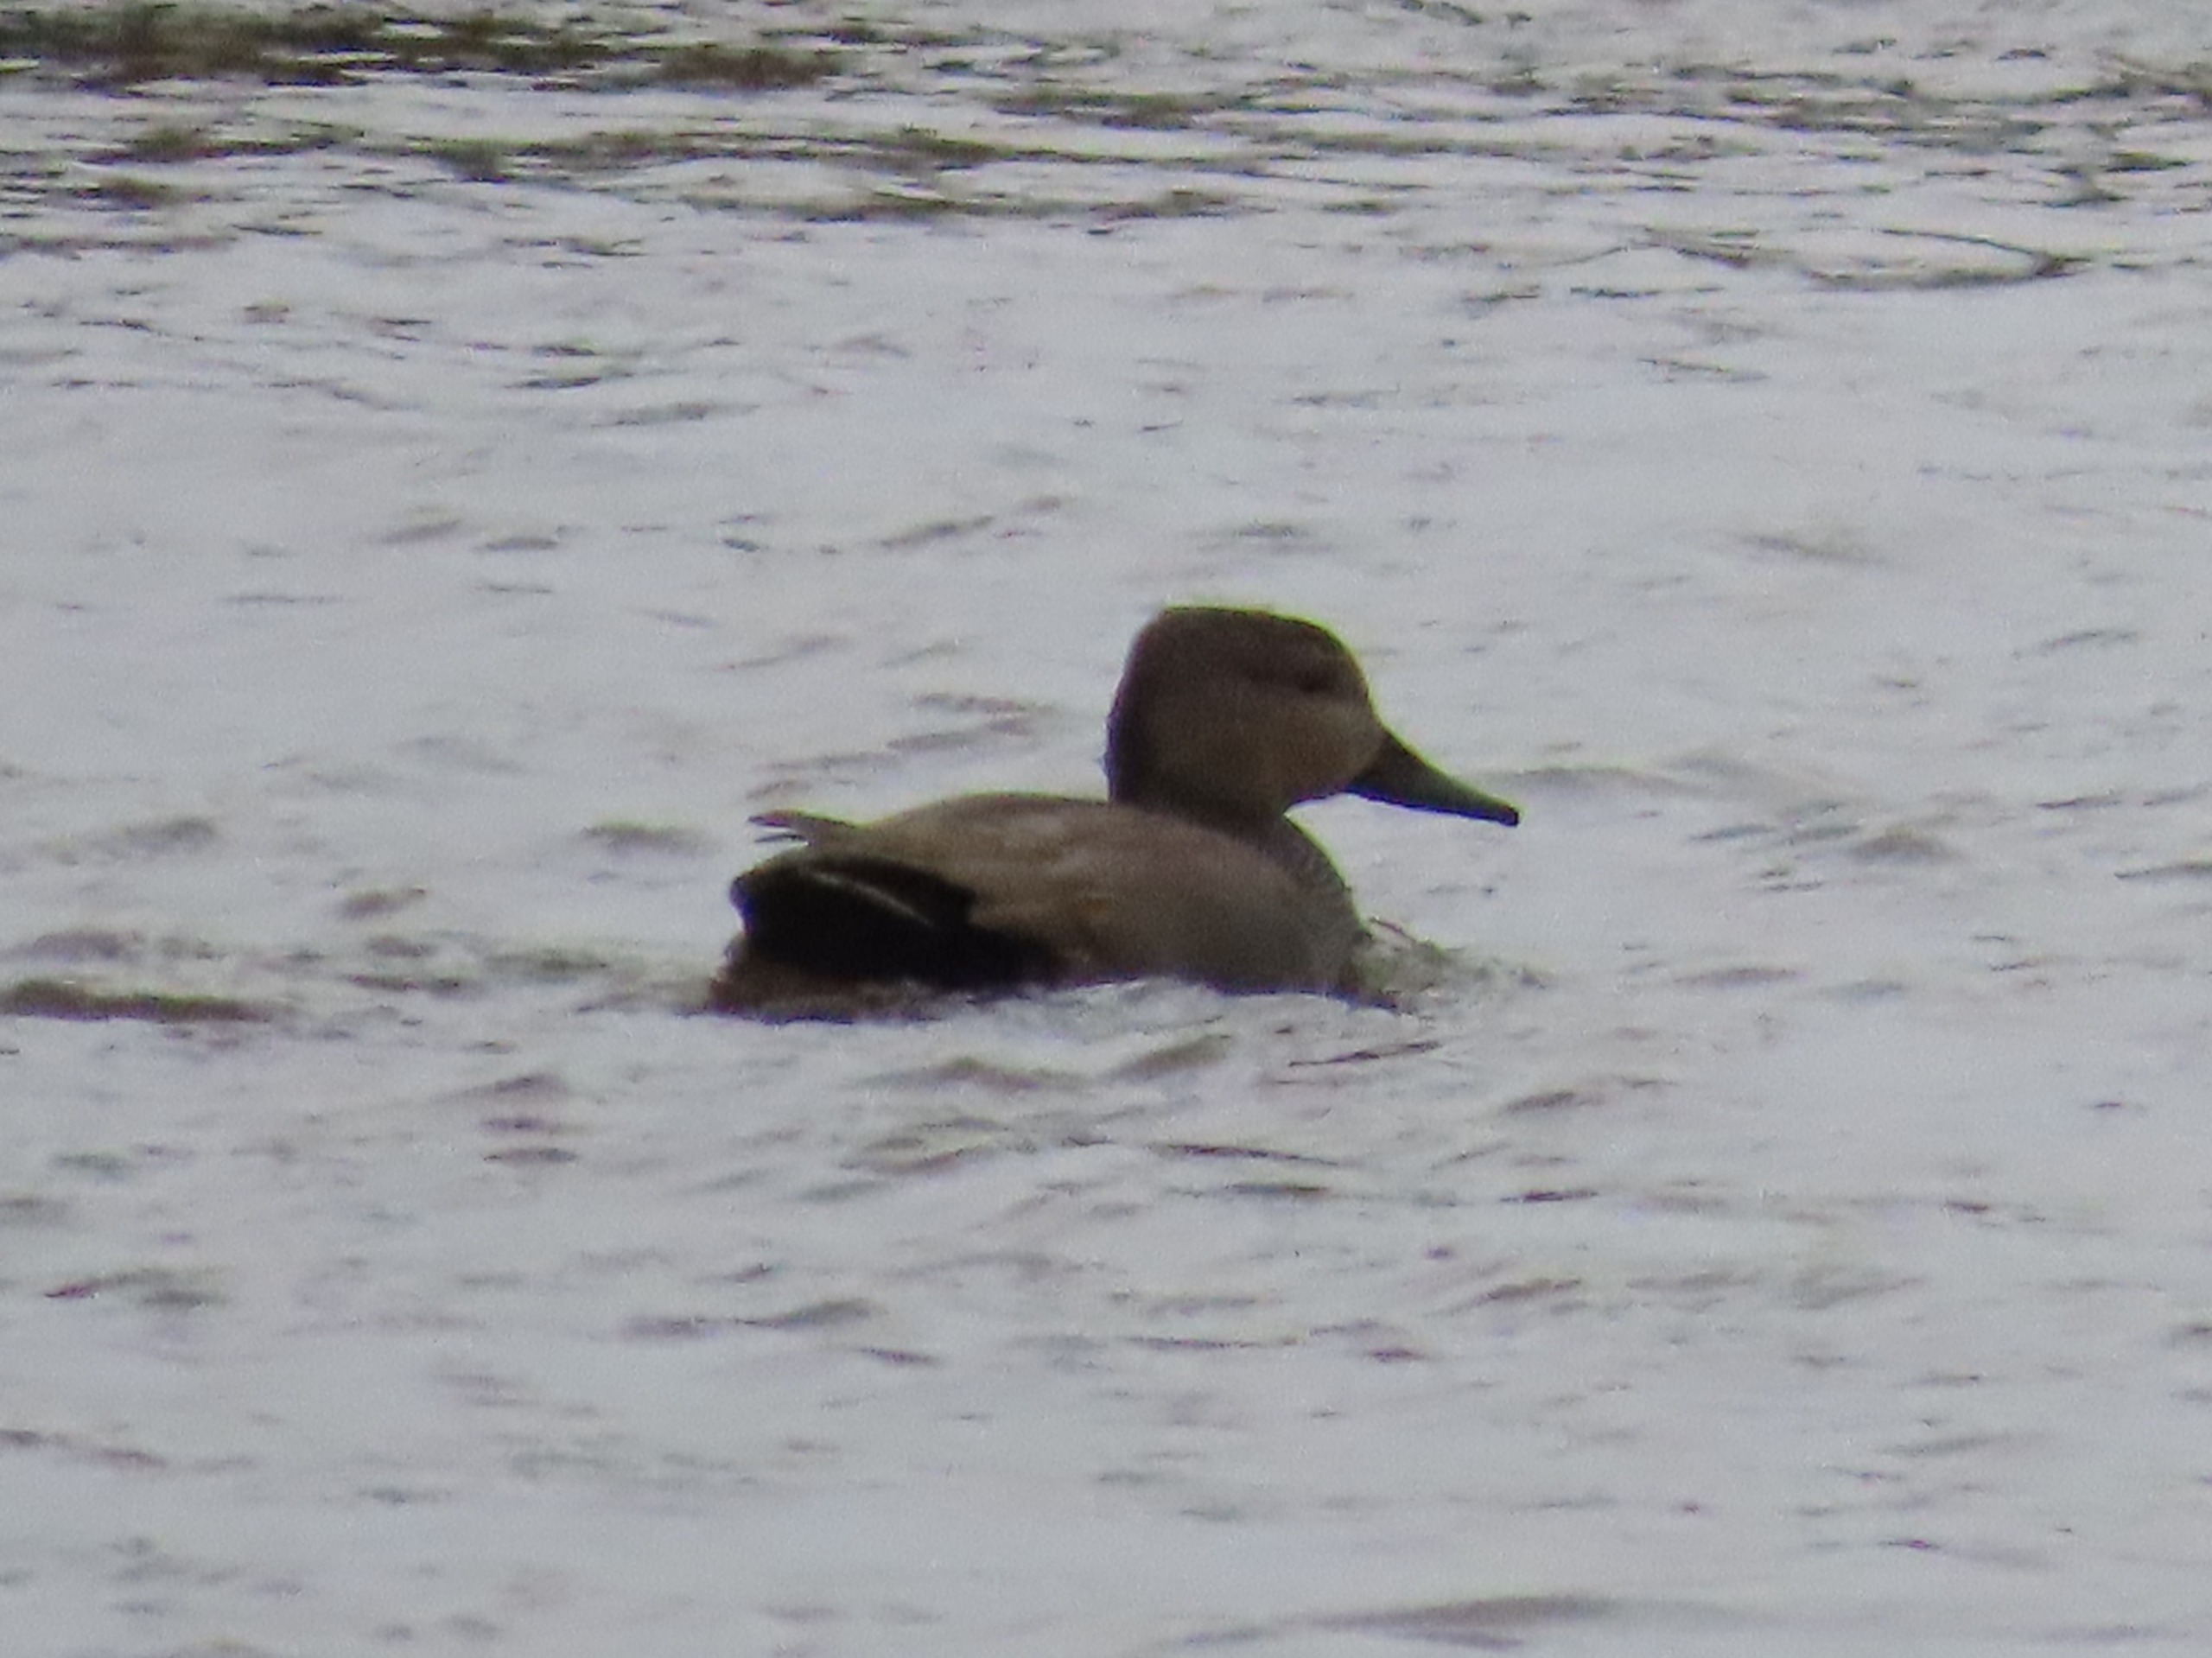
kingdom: Animalia
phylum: Chordata
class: Aves
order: Anseriformes
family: Anatidae
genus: Mareca
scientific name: Mareca strepera
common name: Knarand
